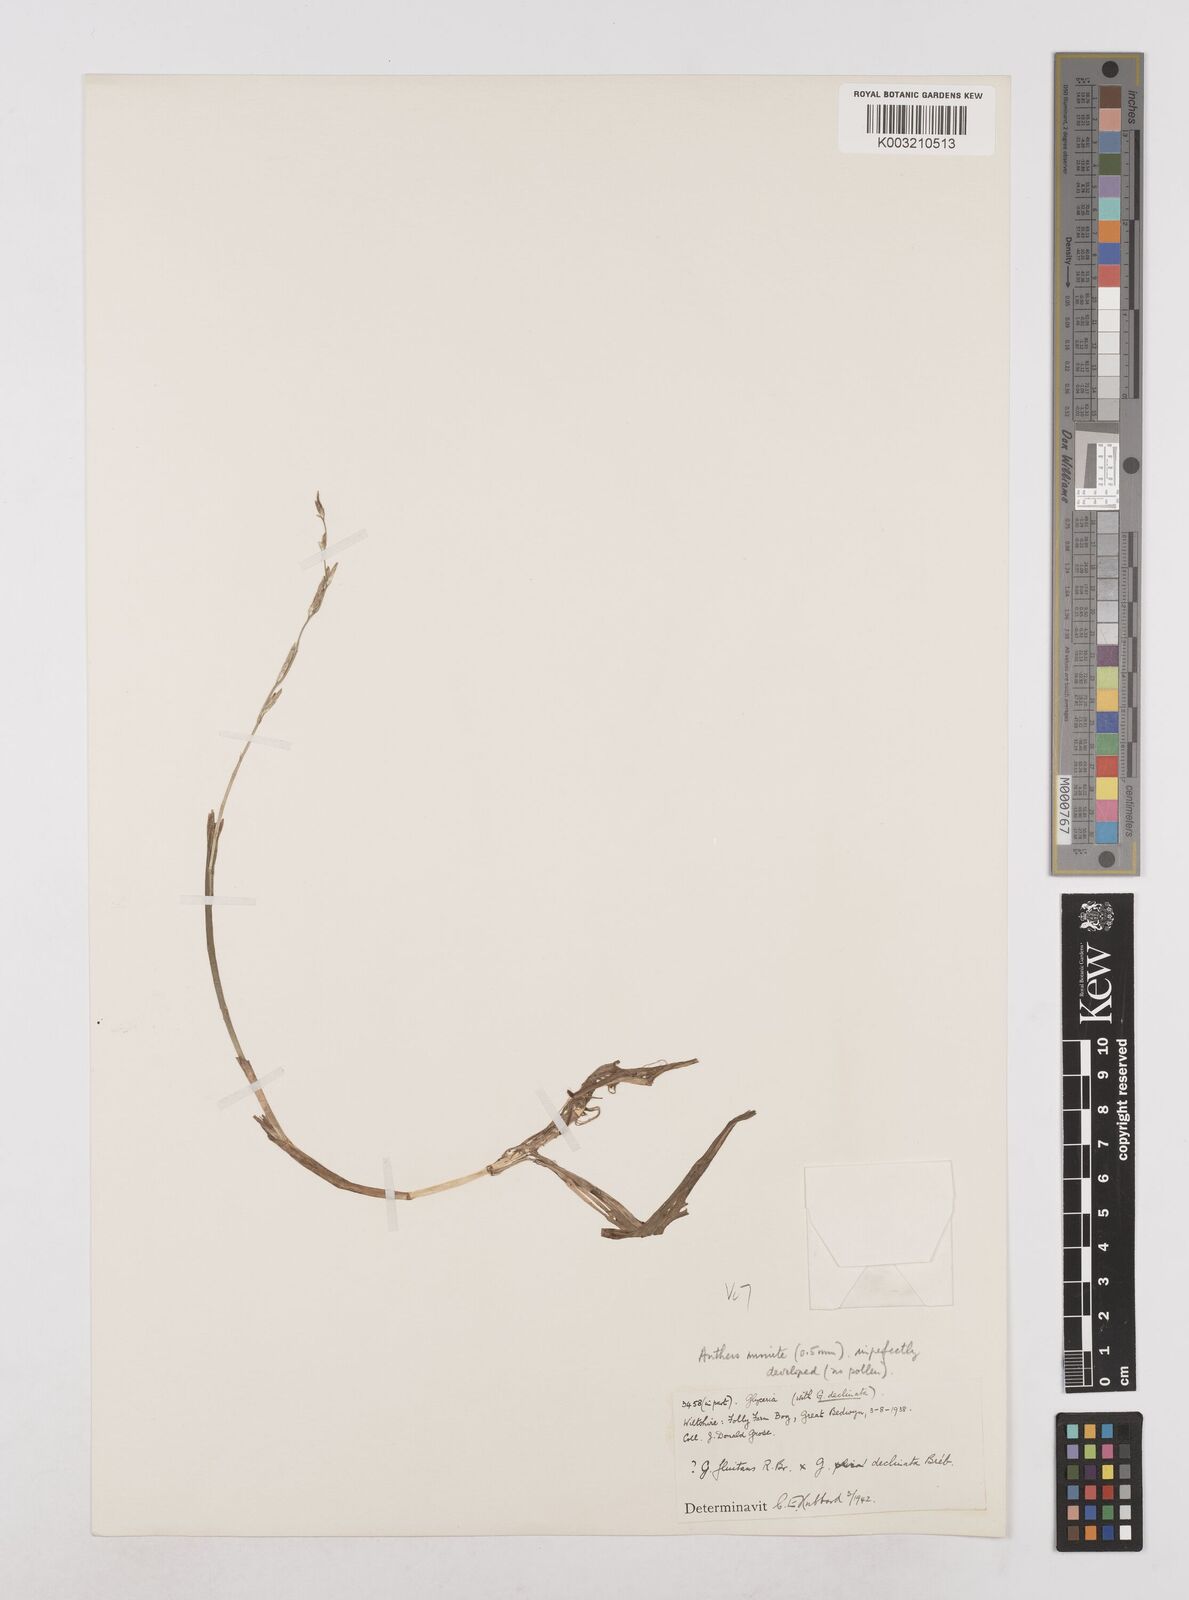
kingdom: Plantae
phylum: Tracheophyta
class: Liliopsida
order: Poales
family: Poaceae
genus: Glyceria
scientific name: Glyceria declinata
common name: Small sweet-grass
